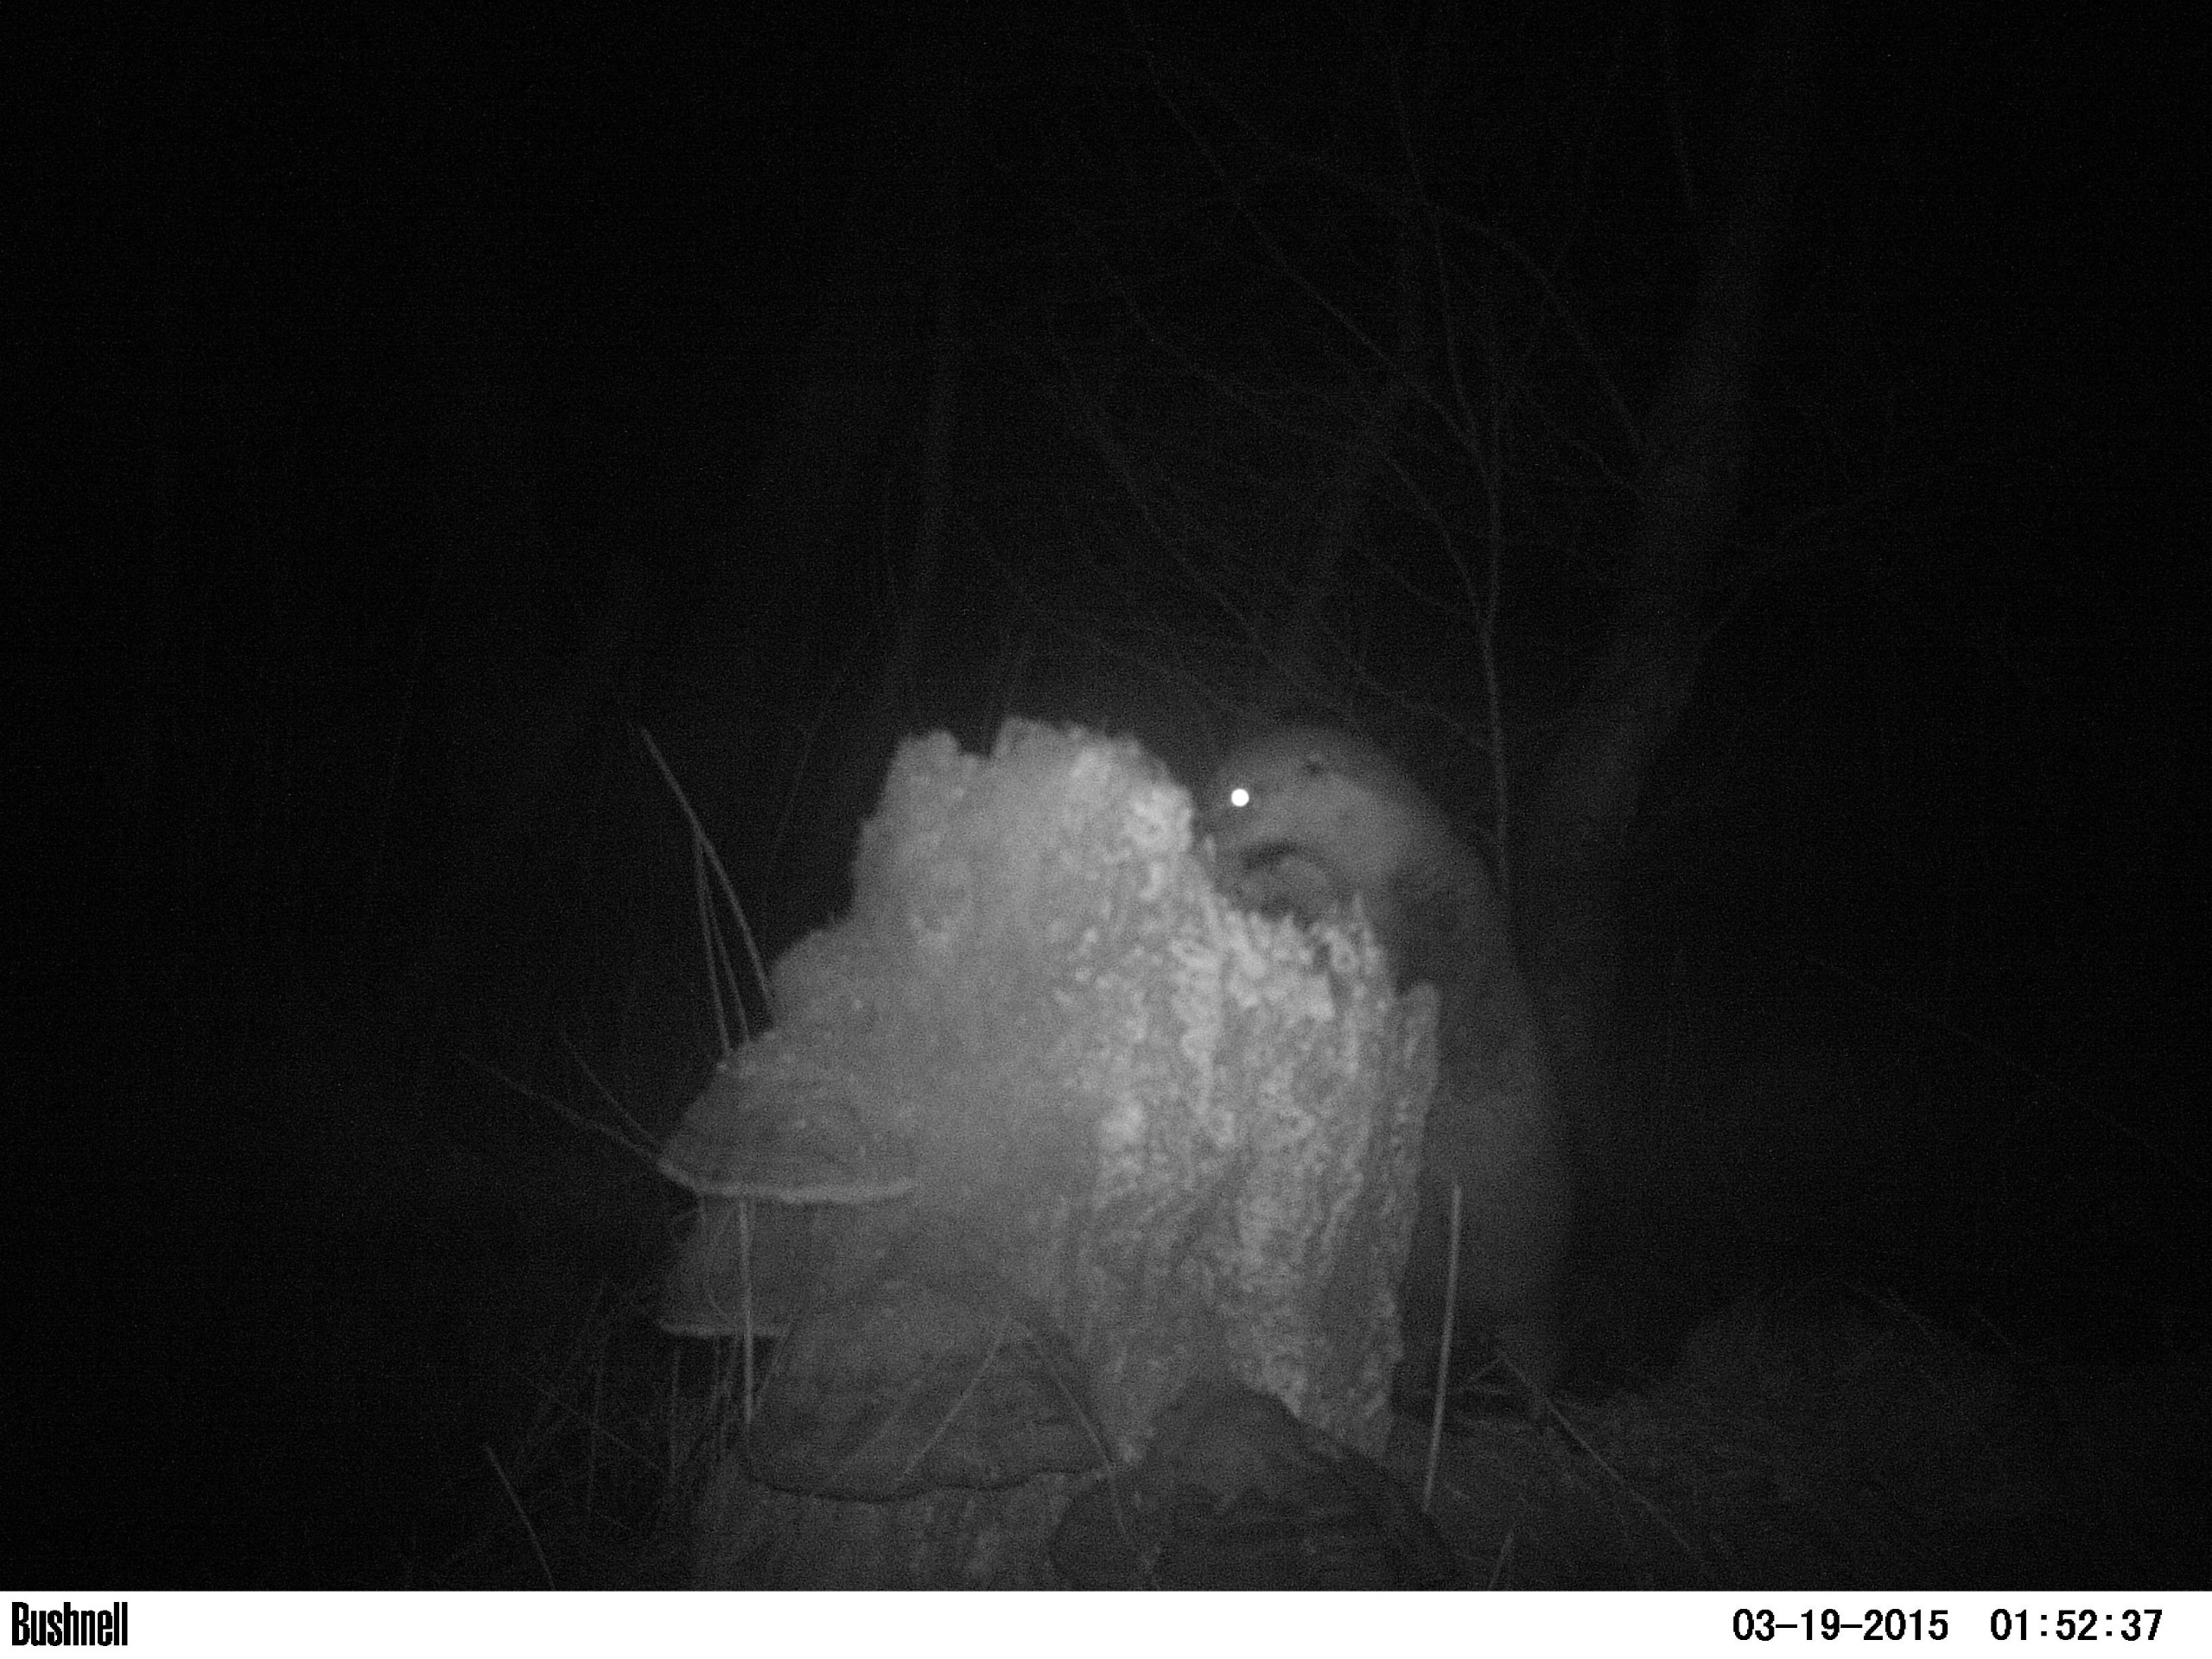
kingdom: Animalia
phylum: Chordata
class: Mammalia
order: Carnivora
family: Mustelidae
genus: Lutra
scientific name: Lutra lutra
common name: Odder
